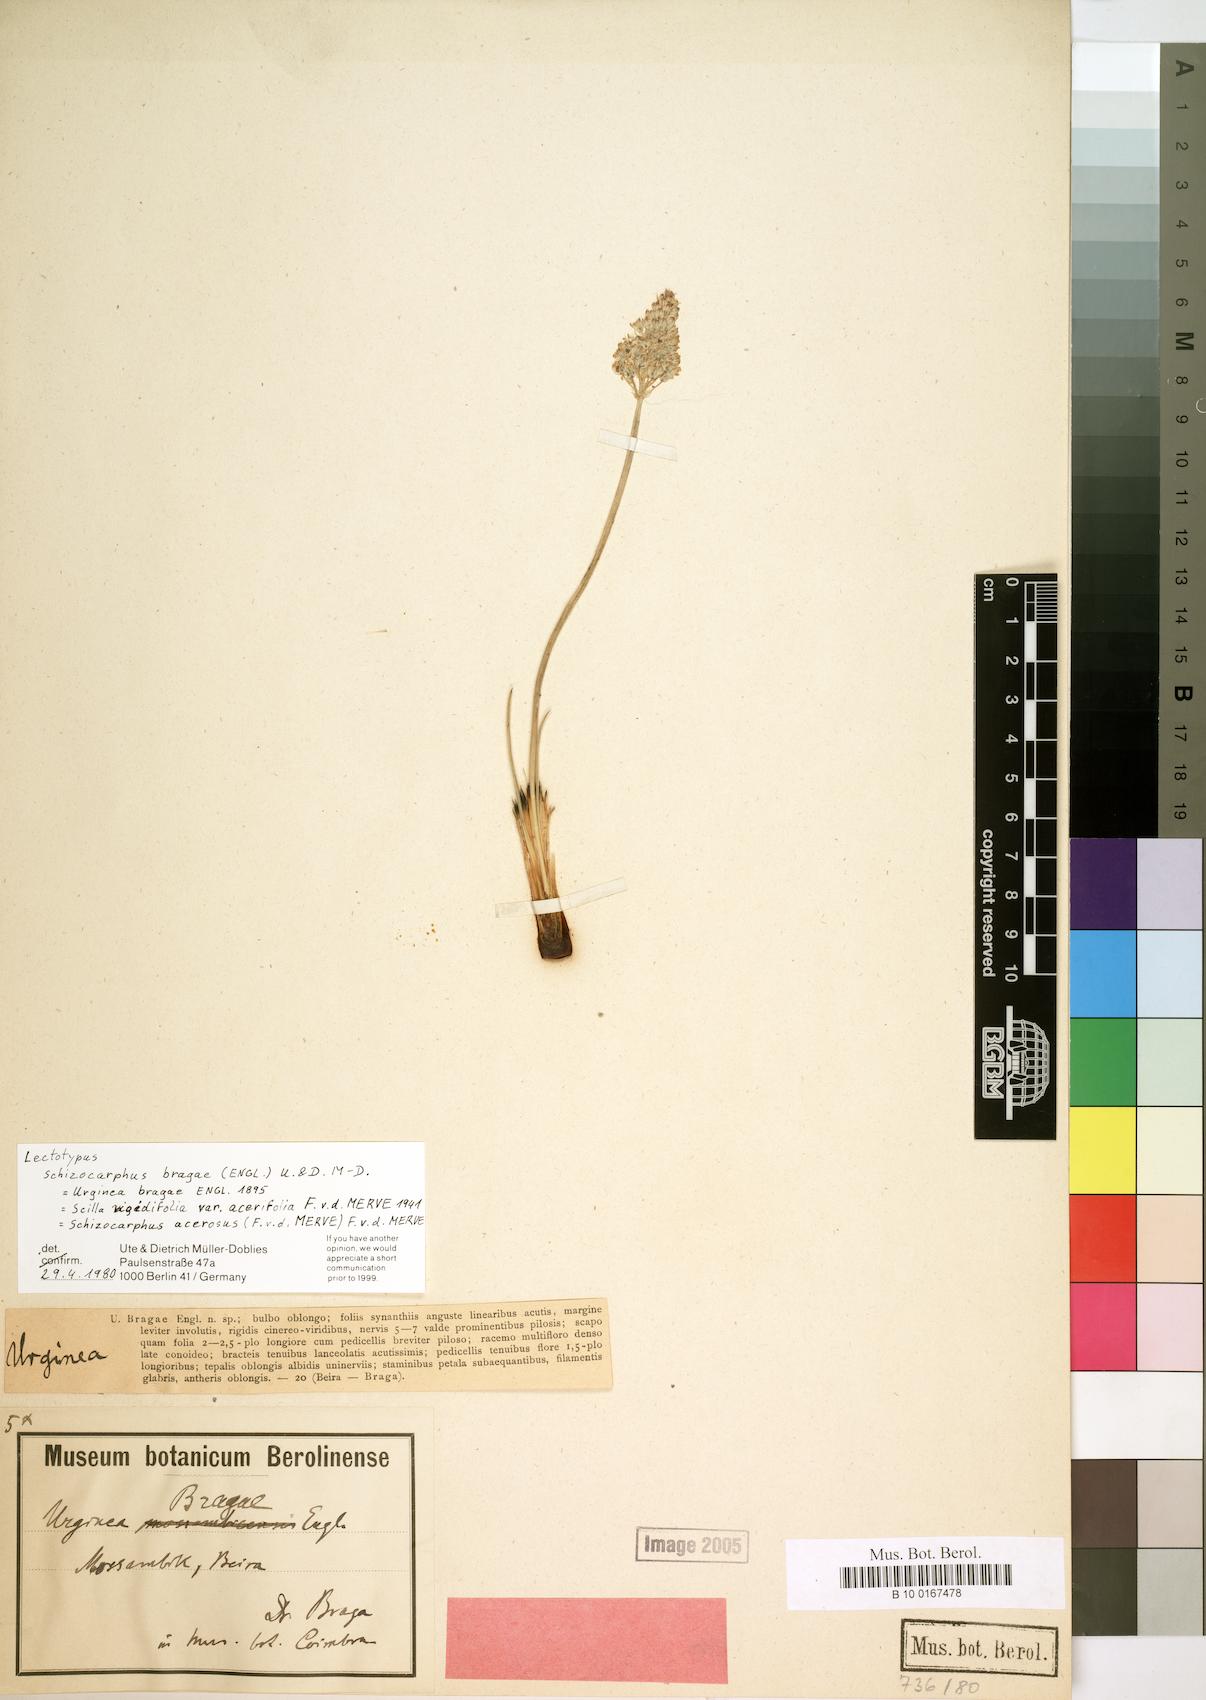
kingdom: Plantae
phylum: Tracheophyta
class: Liliopsida
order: Asparagales
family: Asparagaceae
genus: Schizocarphus
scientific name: Schizocarphus nervosus
